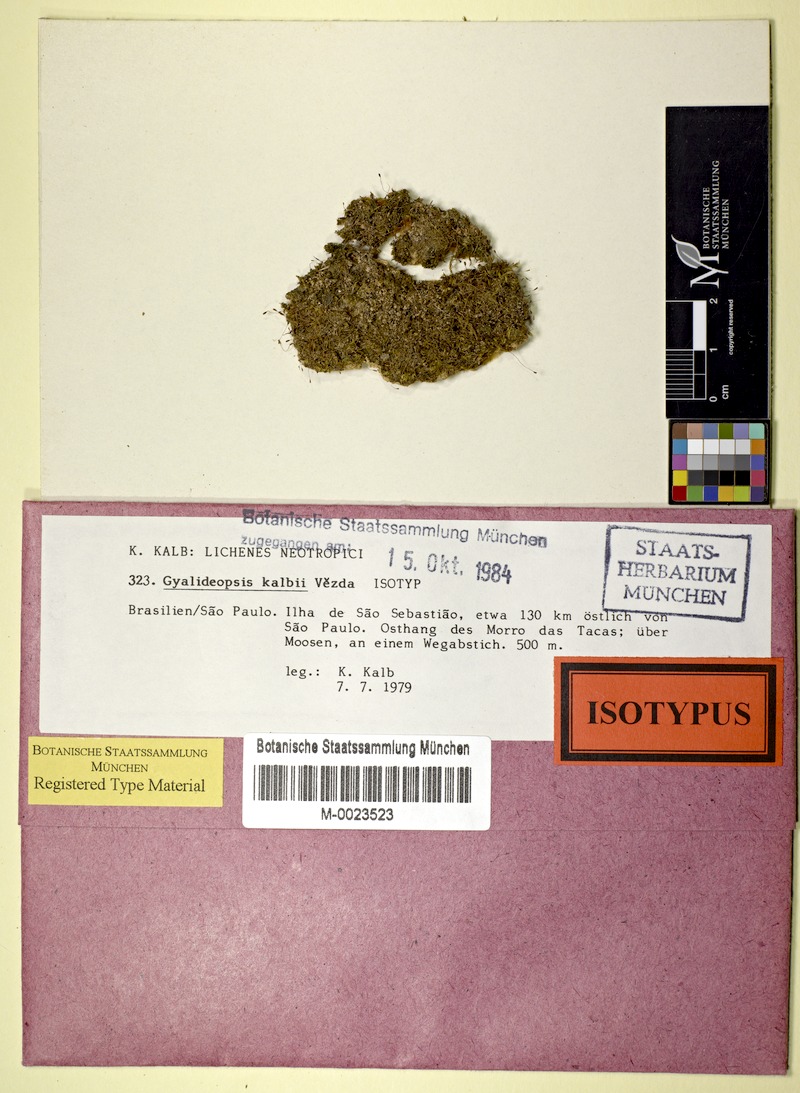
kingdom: Fungi
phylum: Ascomycota
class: Lecanoromycetes
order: Ostropales
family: Gomphillaceae
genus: Gyalideopsis
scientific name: Gyalideopsis kalbii
